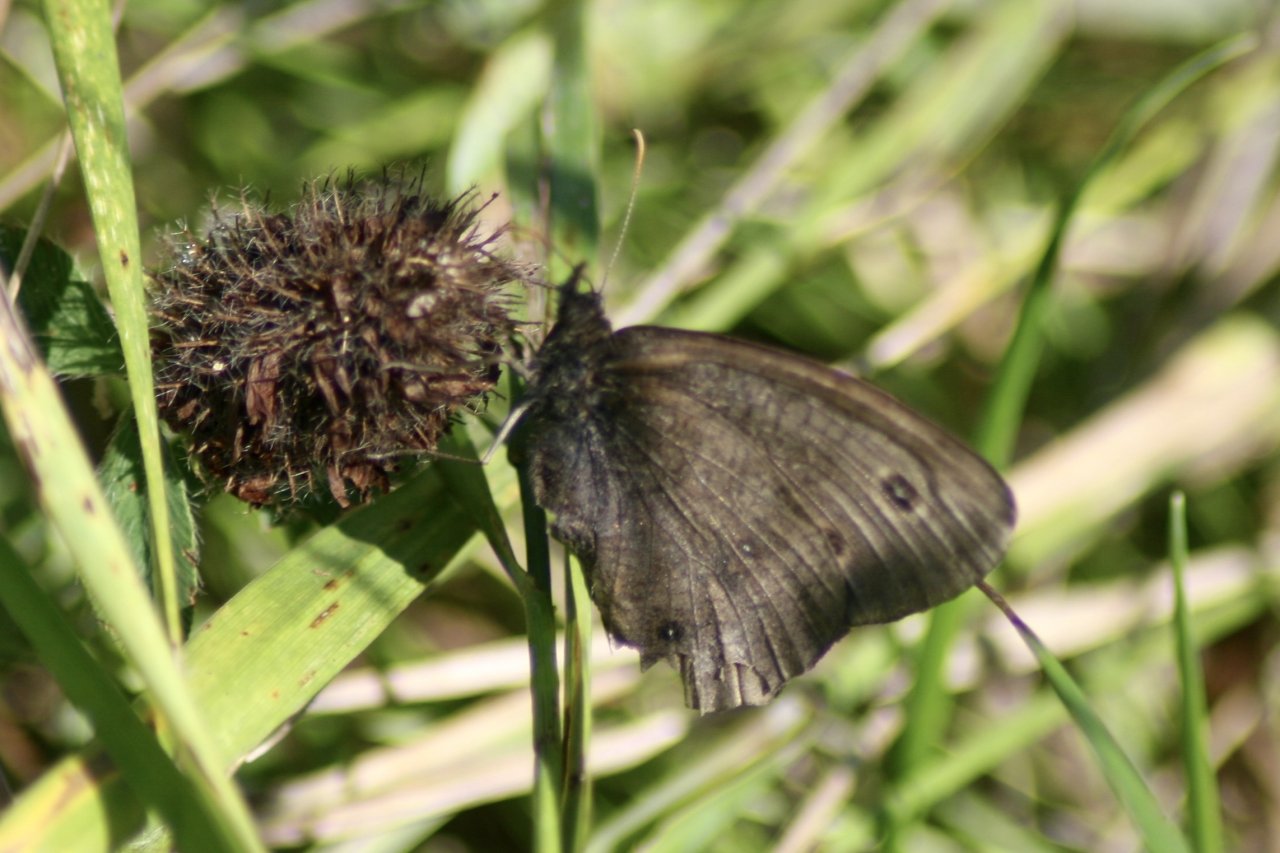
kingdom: Animalia
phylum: Arthropoda
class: Insecta
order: Lepidoptera
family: Nymphalidae
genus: Cercyonis
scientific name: Cercyonis pegala
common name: Common Wood-Nymph
